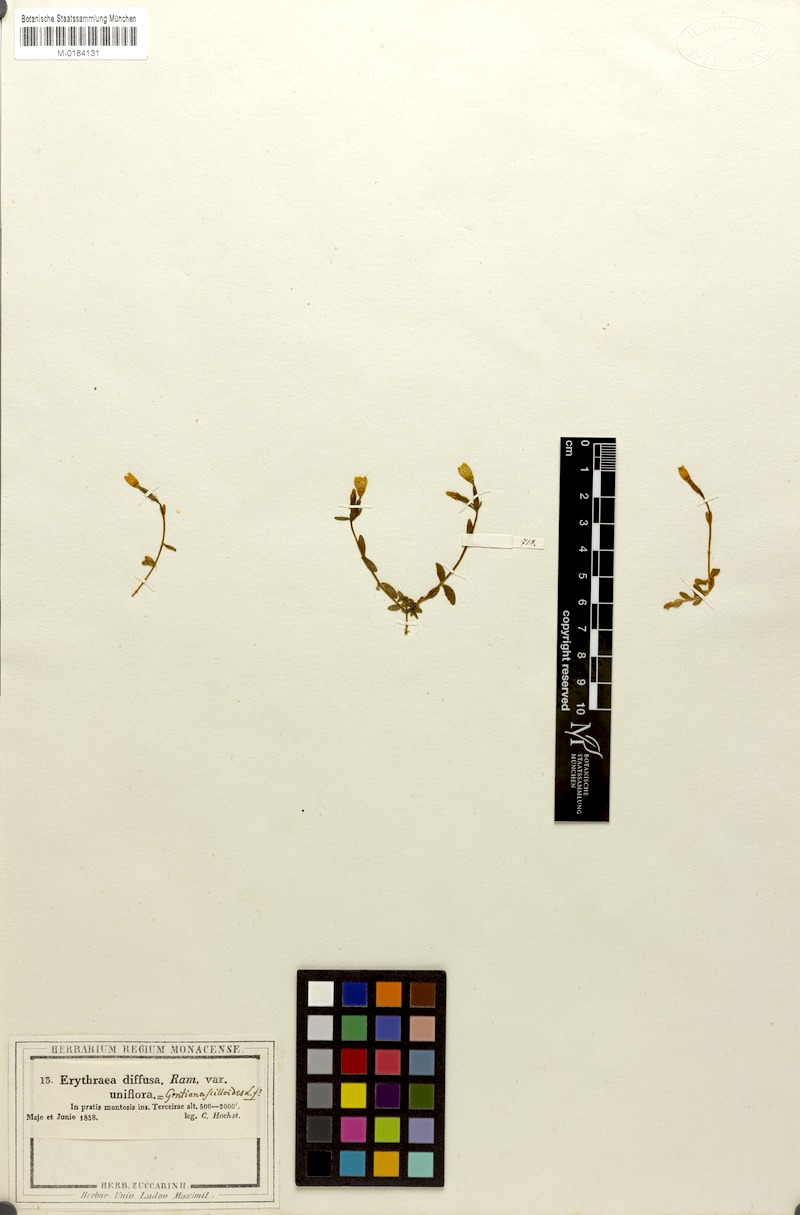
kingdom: Plantae
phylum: Tracheophyta
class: Magnoliopsida
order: Gentianales
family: Gentianaceae
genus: Centaurium
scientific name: Centaurium scilloides
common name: Perennial centaury
